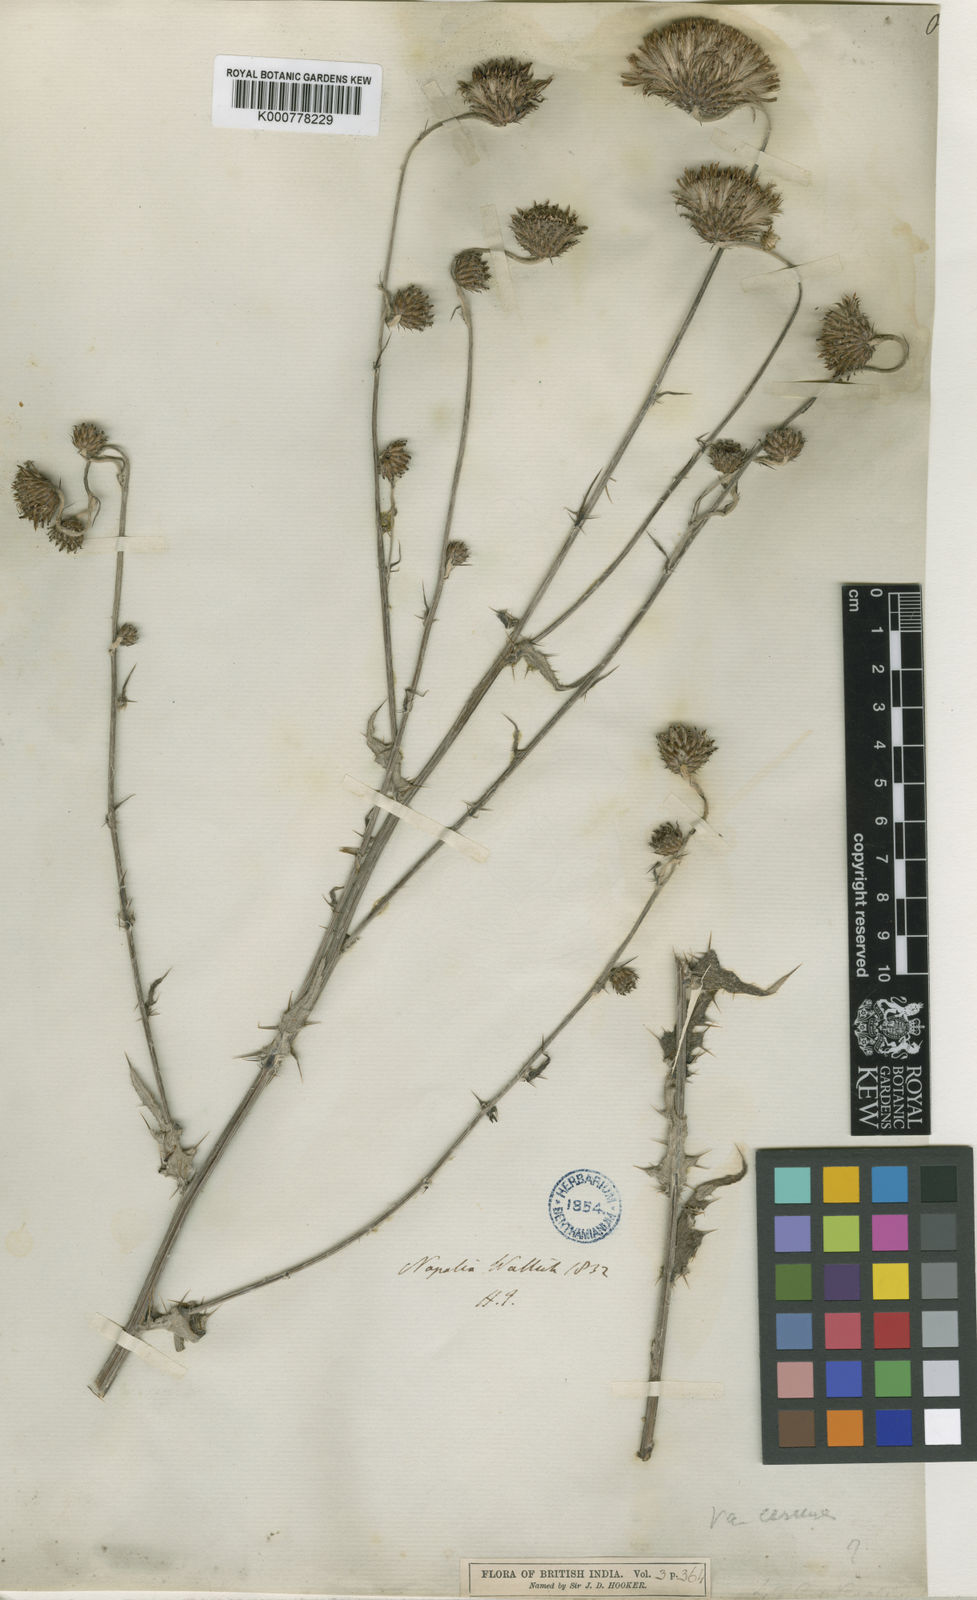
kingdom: Plantae
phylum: Tracheophyta
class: Magnoliopsida
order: Asterales
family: Asteraceae
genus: Cirsium
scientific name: Cirsium wallichii
